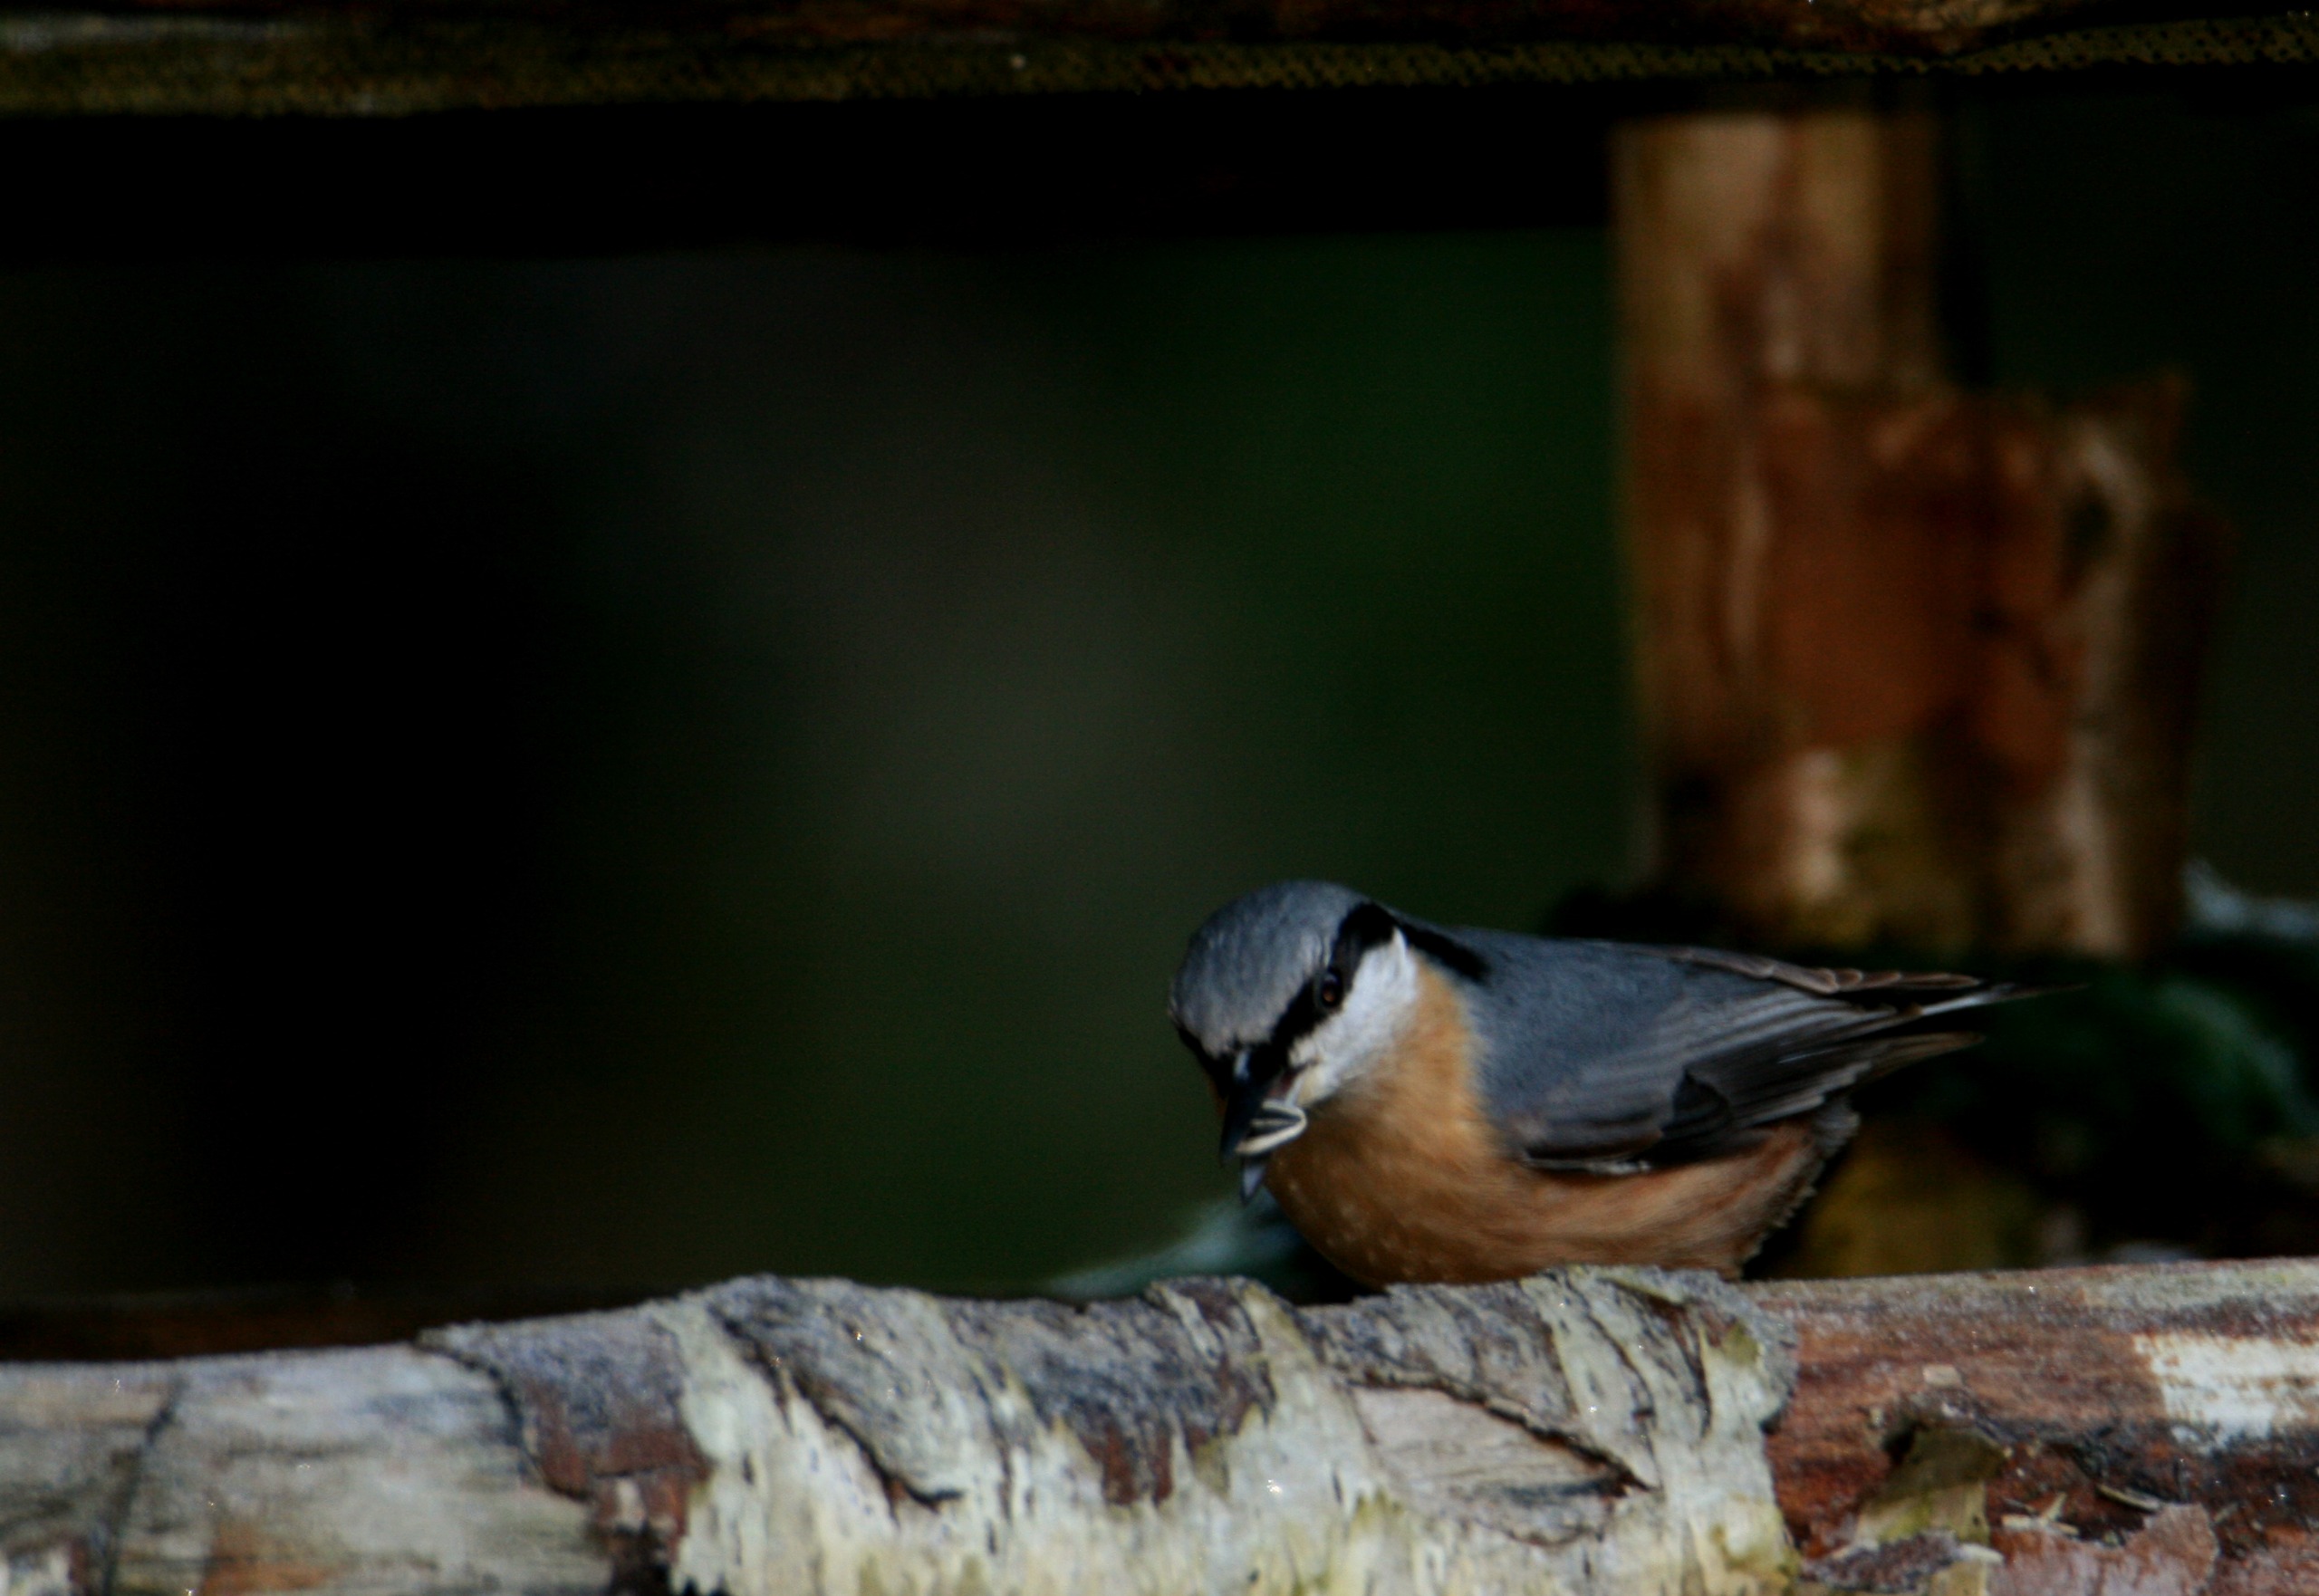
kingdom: Animalia
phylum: Chordata
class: Aves
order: Passeriformes
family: Sittidae
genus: Sitta
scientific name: Sitta europaea
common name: Spætmejse
